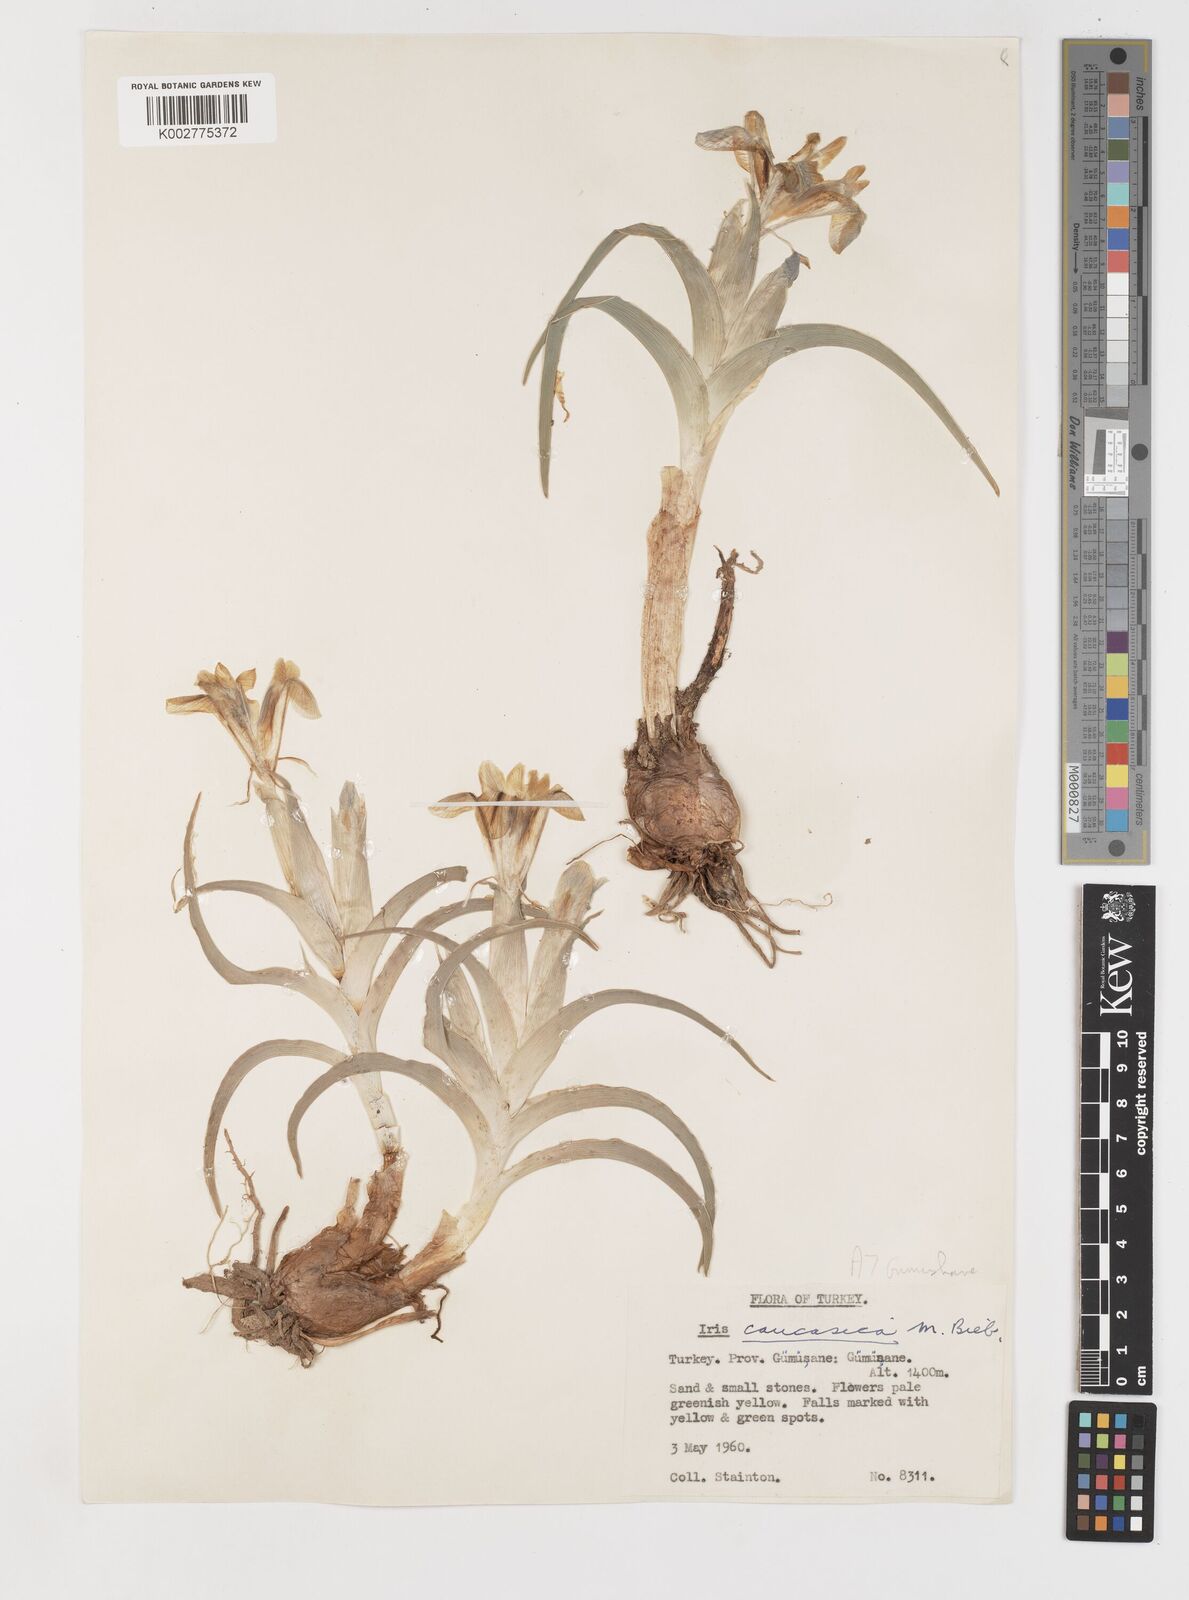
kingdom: Plantae
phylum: Tracheophyta
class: Liliopsida
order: Asparagales
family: Iridaceae
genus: Iris
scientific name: Iris caucasica
